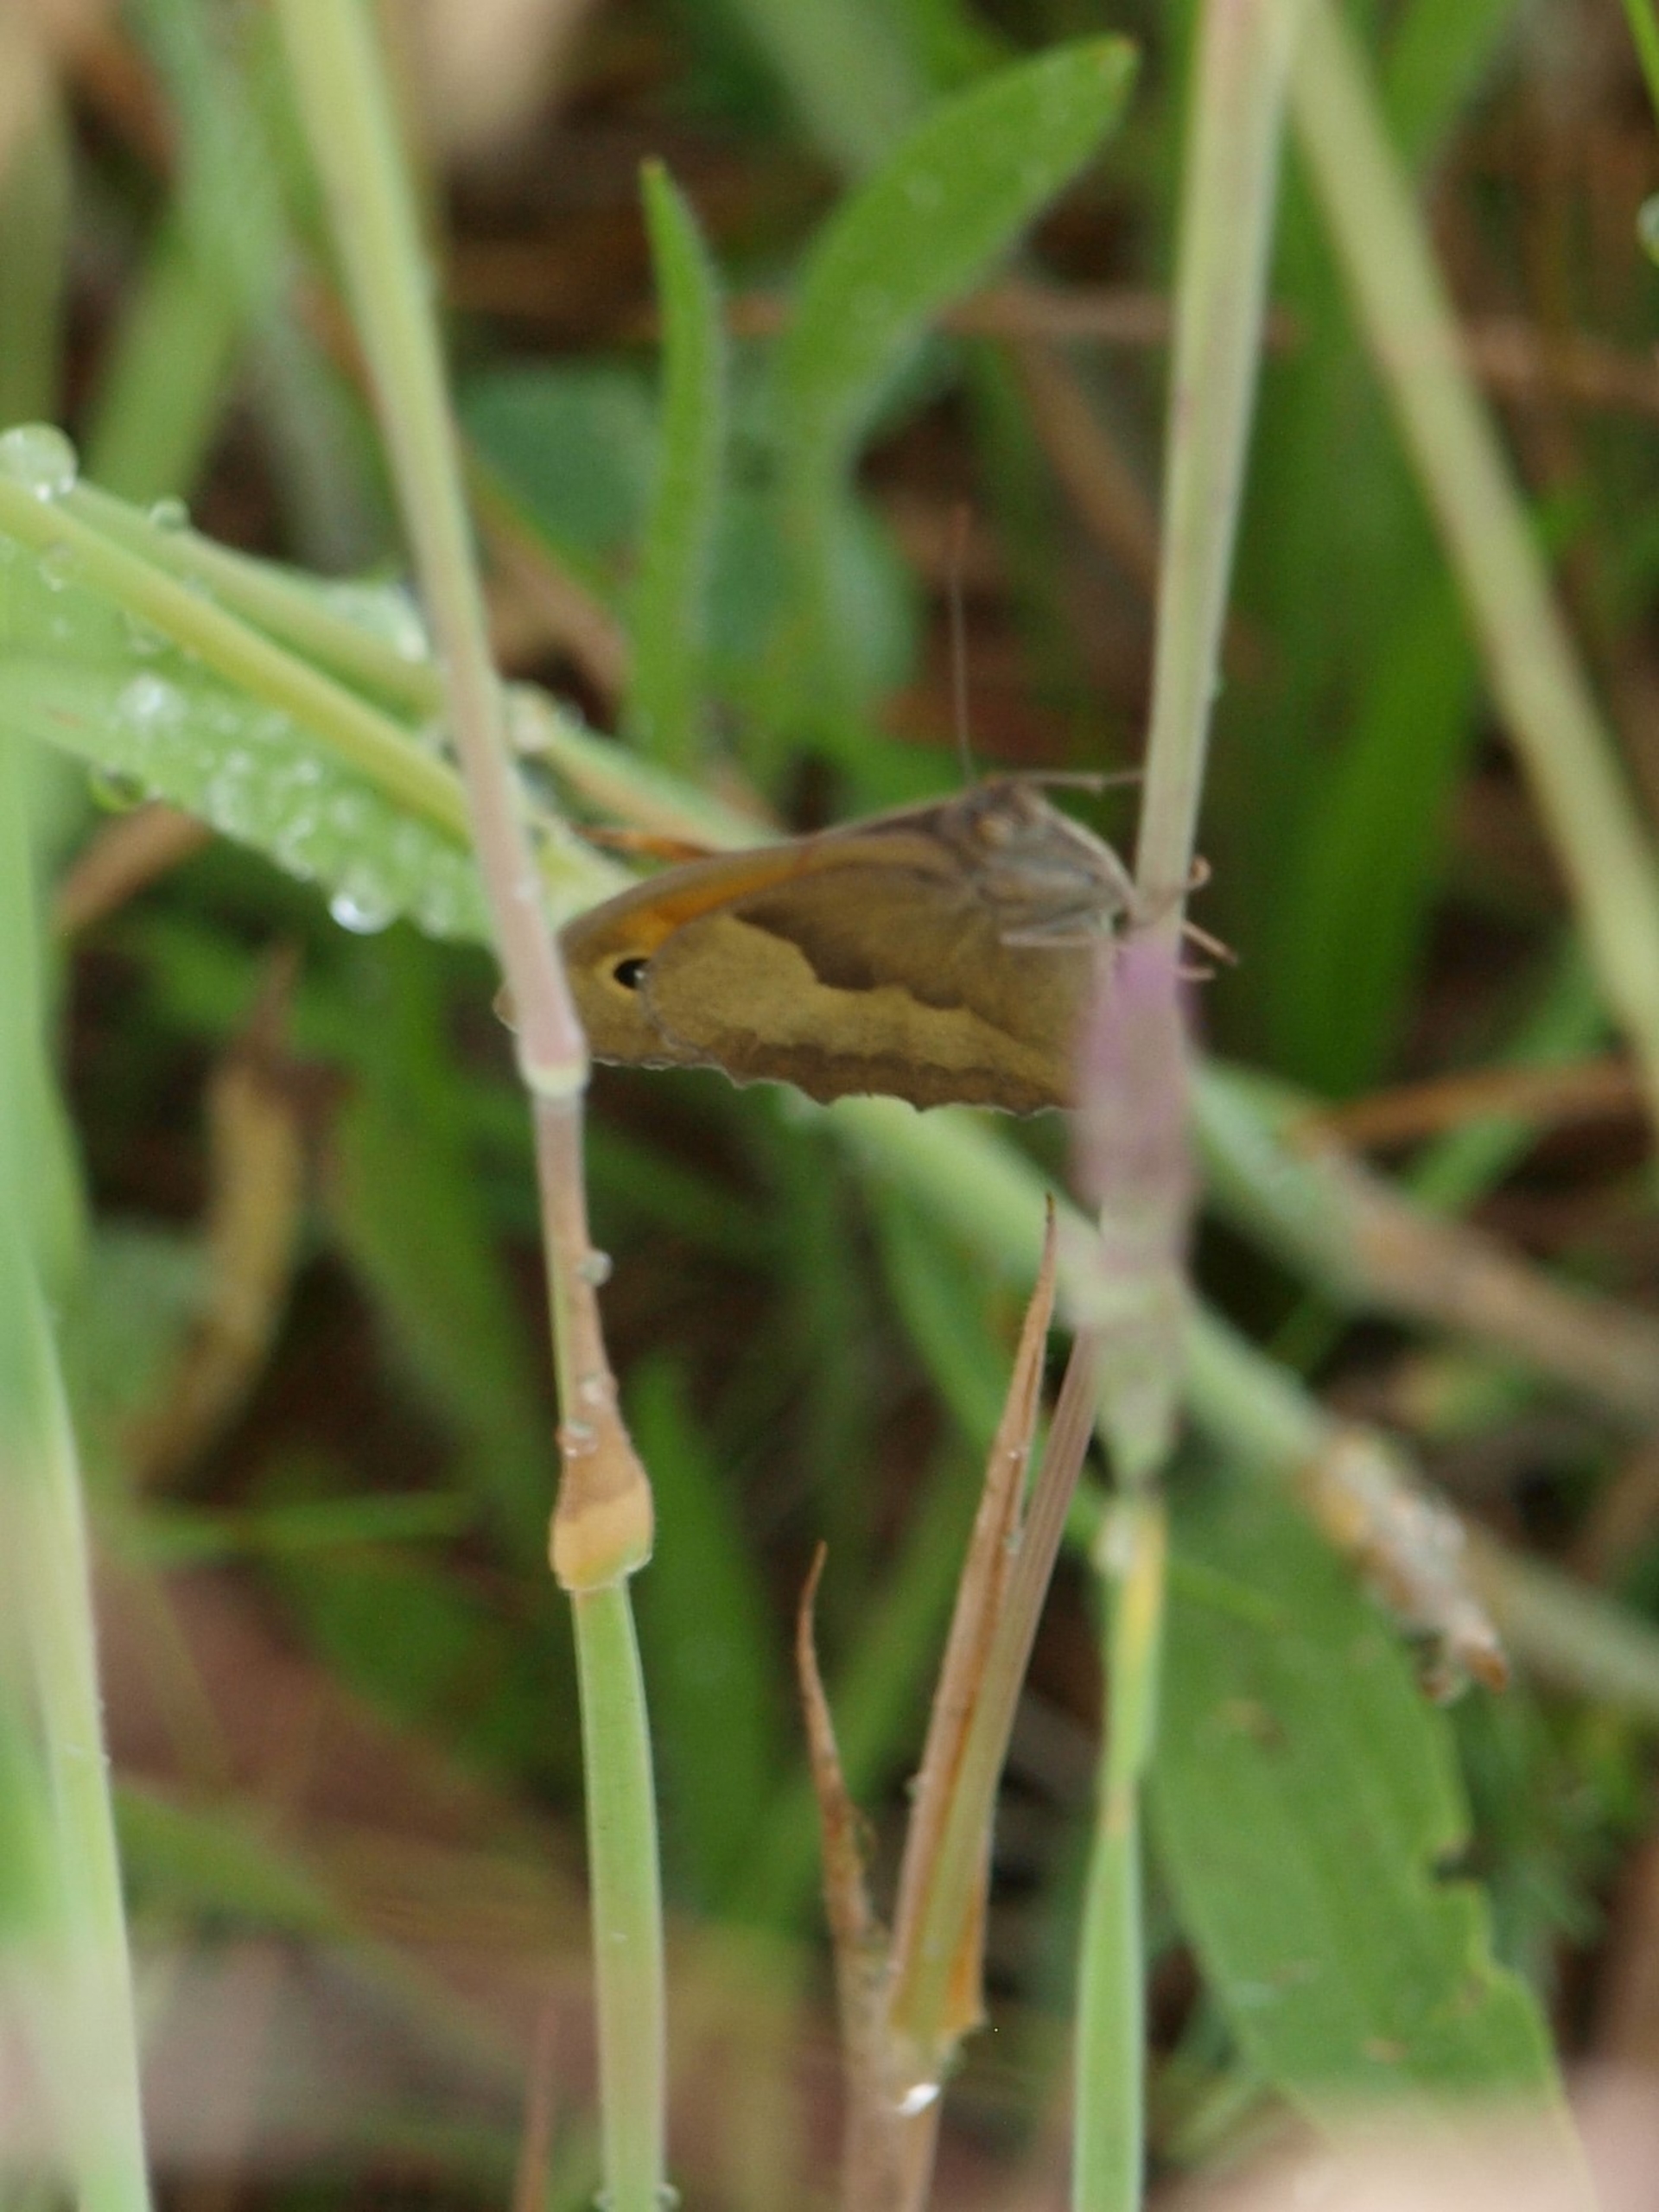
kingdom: Animalia
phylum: Arthropoda
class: Insecta
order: Lepidoptera
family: Nymphalidae
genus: Maniola
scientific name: Maniola jurtina
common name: Græsrandøje
